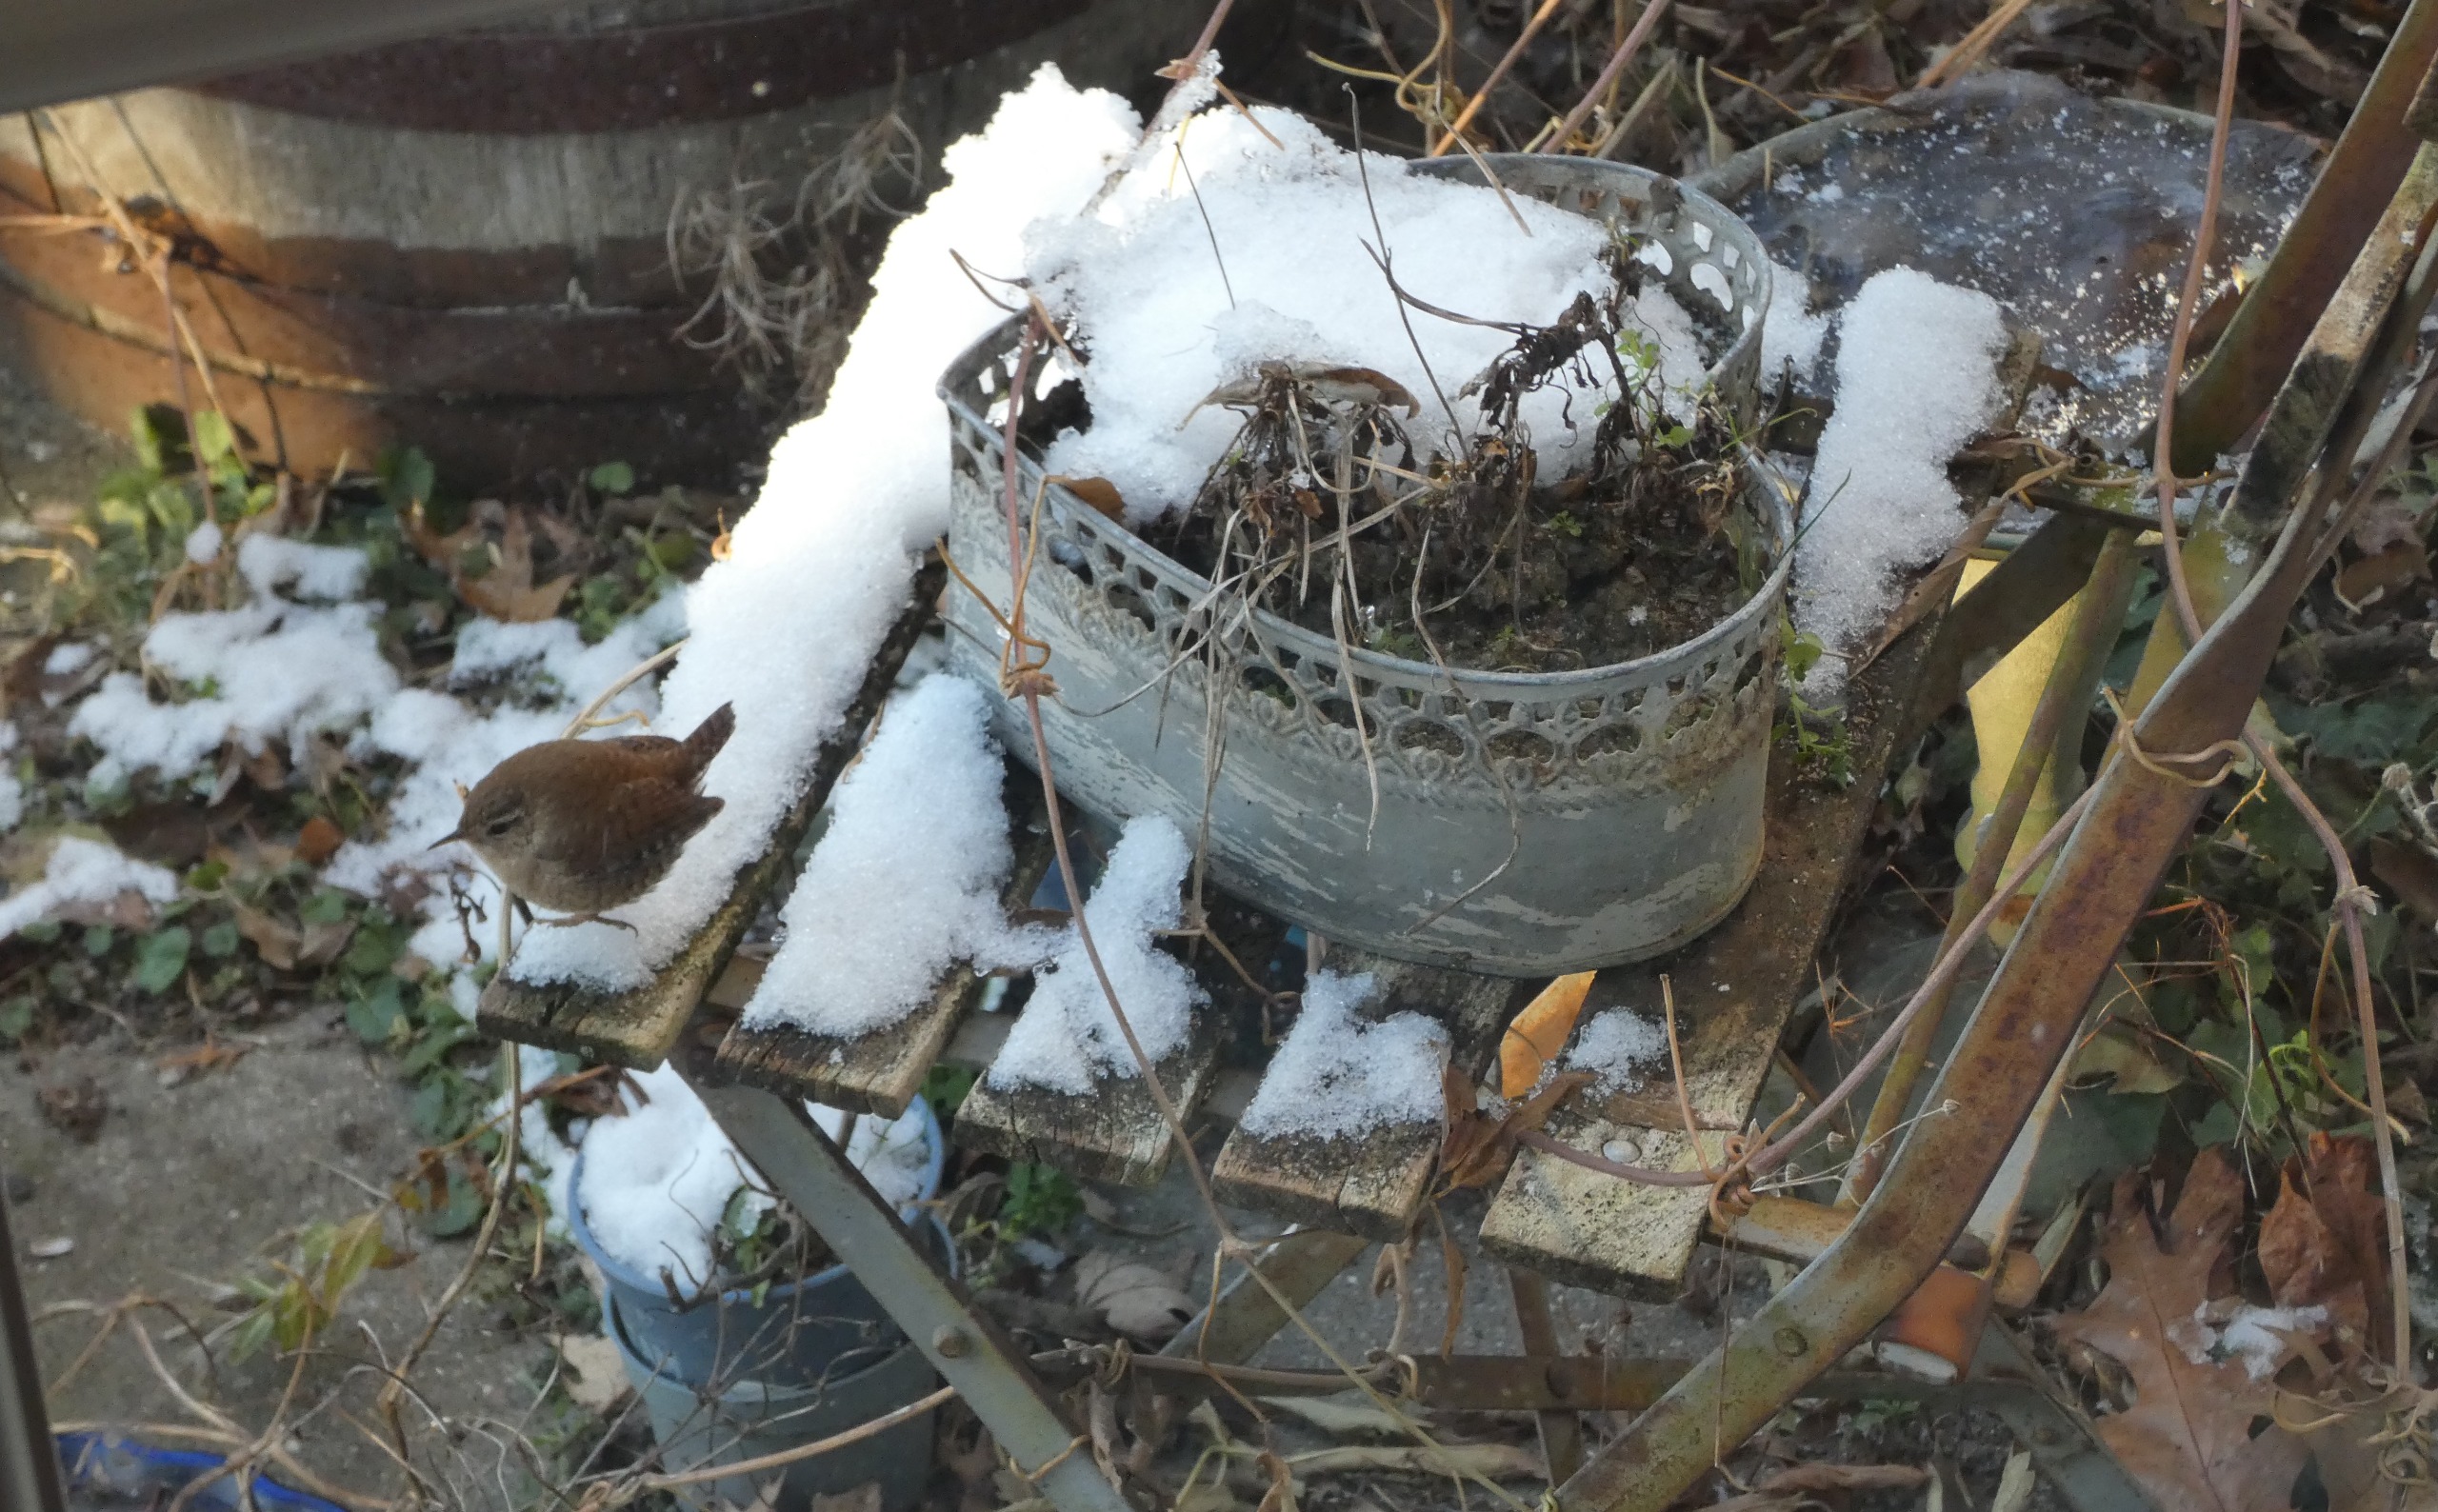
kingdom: Animalia
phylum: Chordata
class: Aves
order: Passeriformes
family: Troglodytidae
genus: Troglodytes
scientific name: Troglodytes troglodytes
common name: Gærdesmutte
